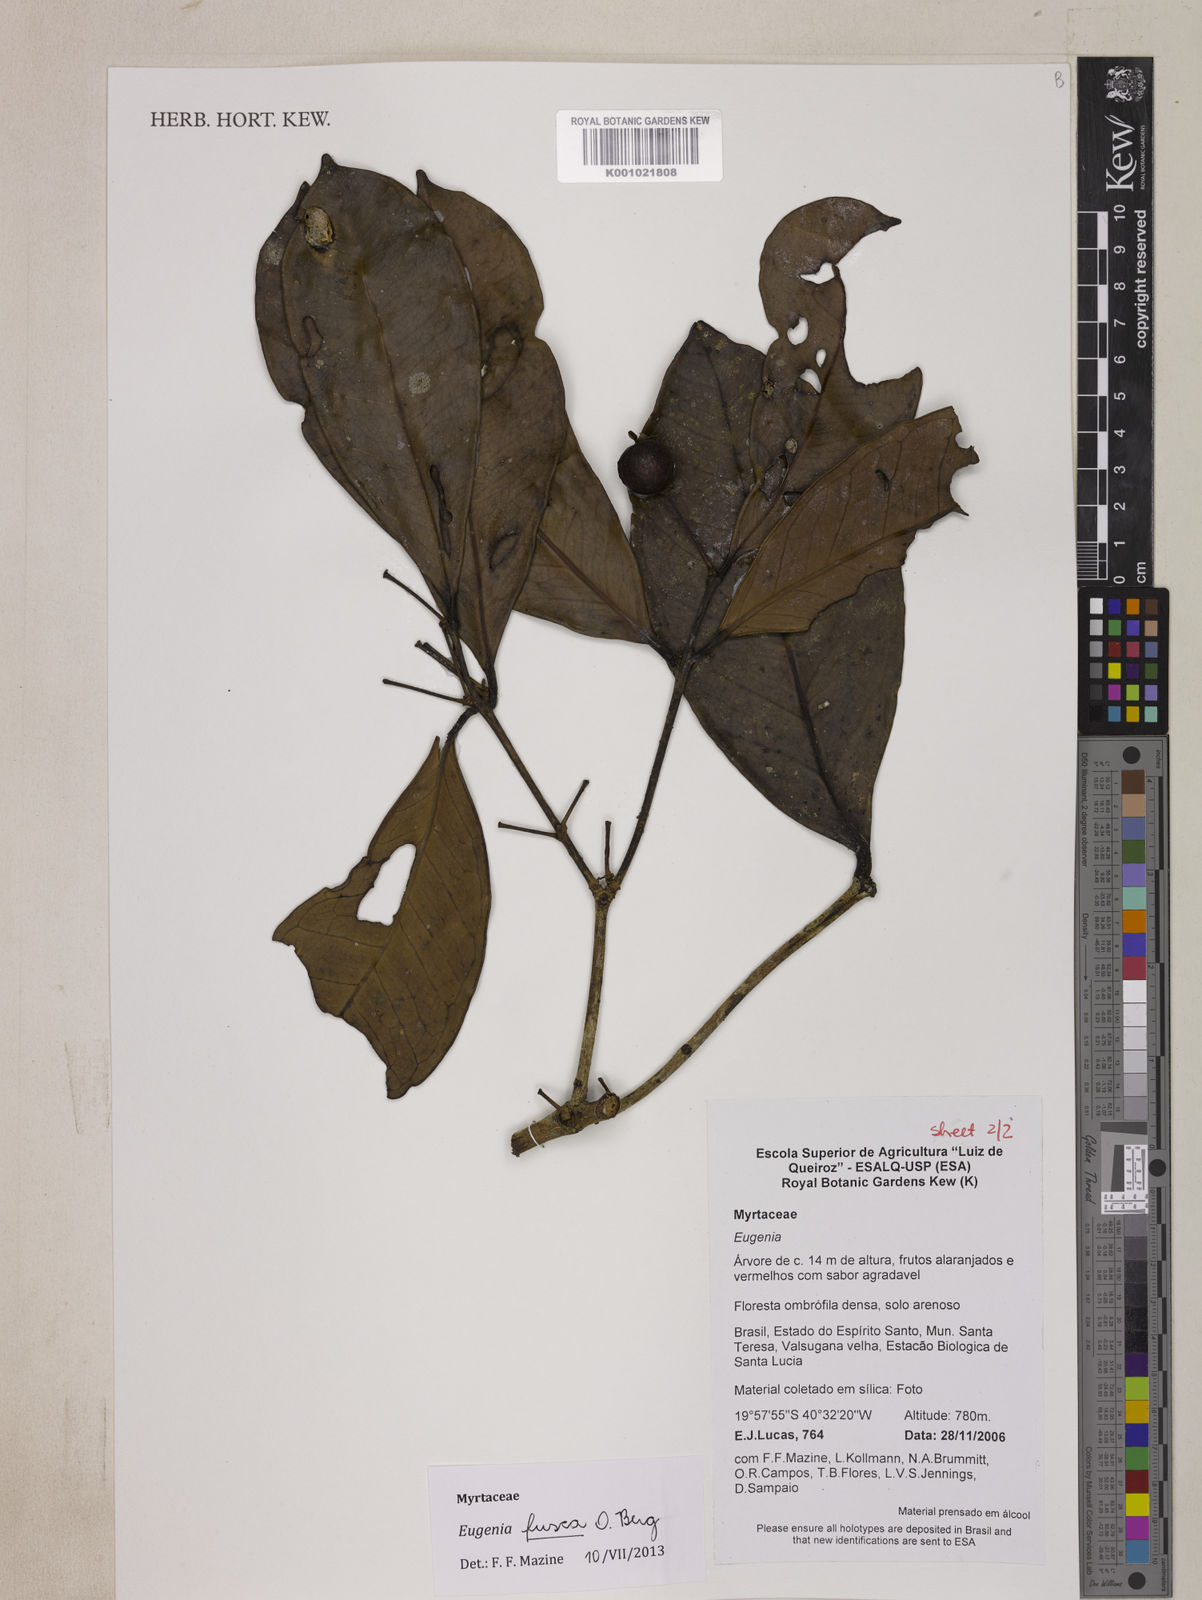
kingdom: Plantae
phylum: Tracheophyta
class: Magnoliopsida
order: Myrtales
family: Myrtaceae
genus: Eugenia
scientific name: Eugenia fusca
